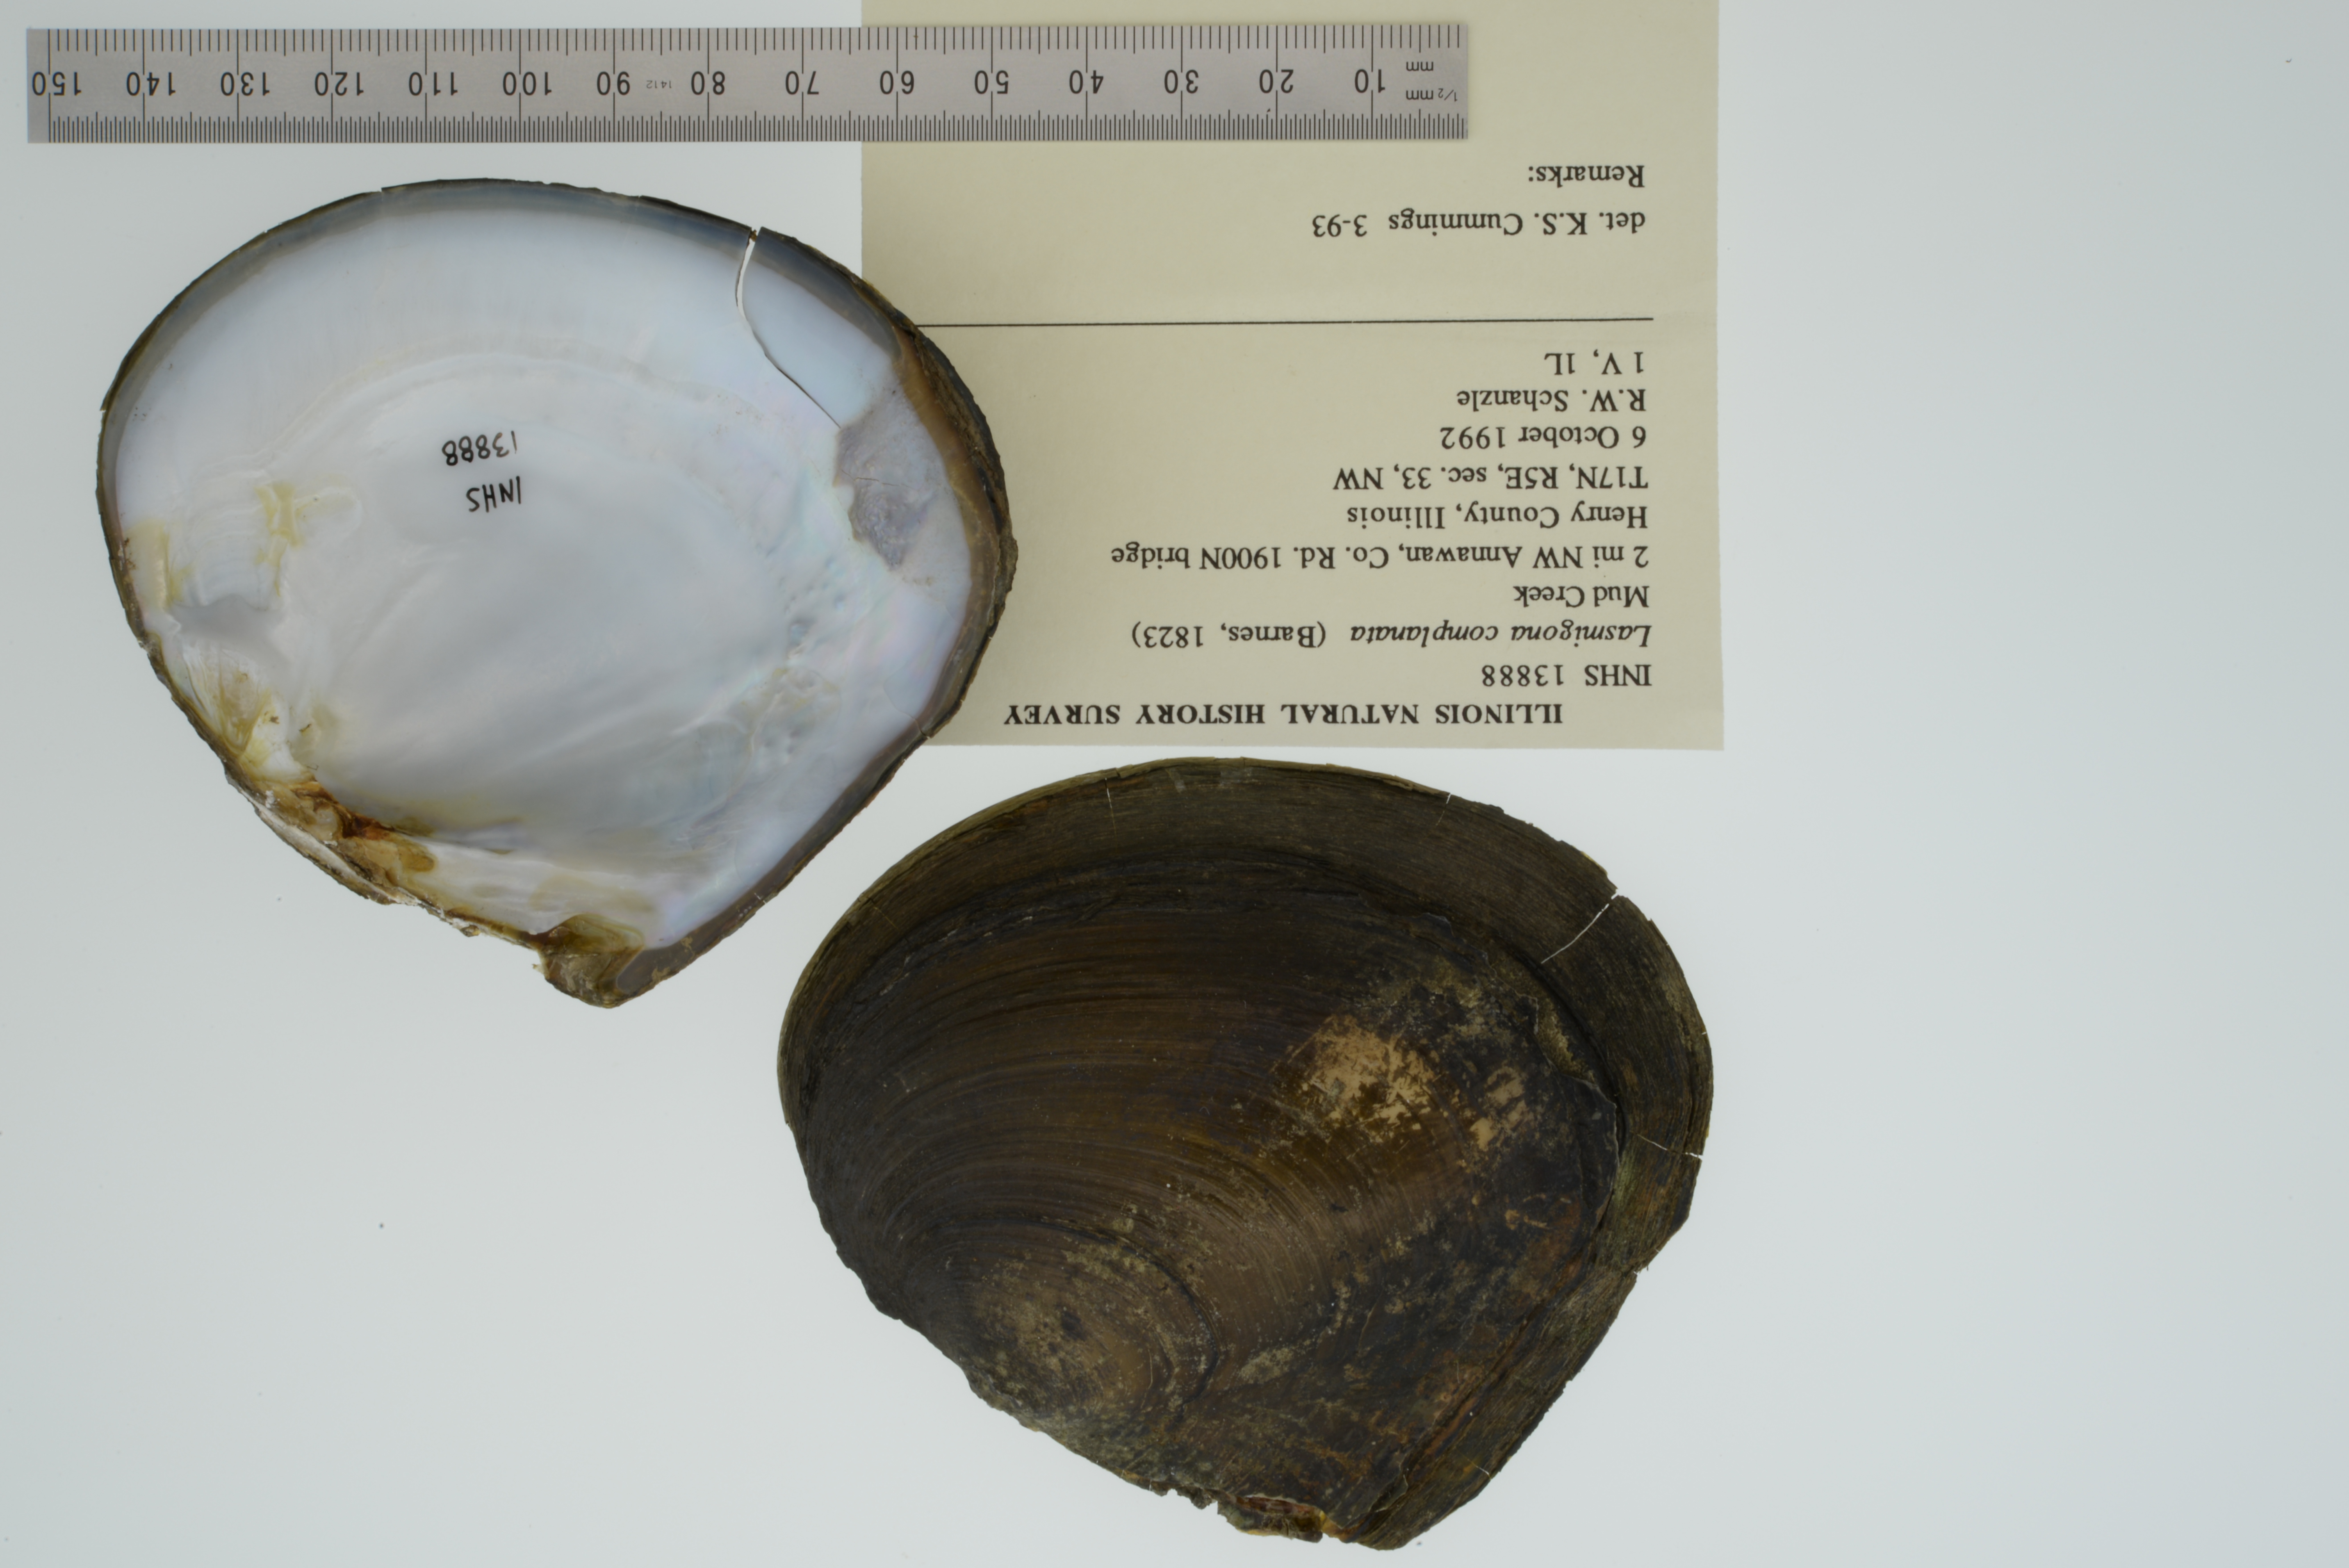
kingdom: Animalia
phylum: Mollusca
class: Bivalvia
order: Unionida
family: Unionidae
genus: Lasmigona
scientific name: Lasmigona complanata
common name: White heelsplitter
